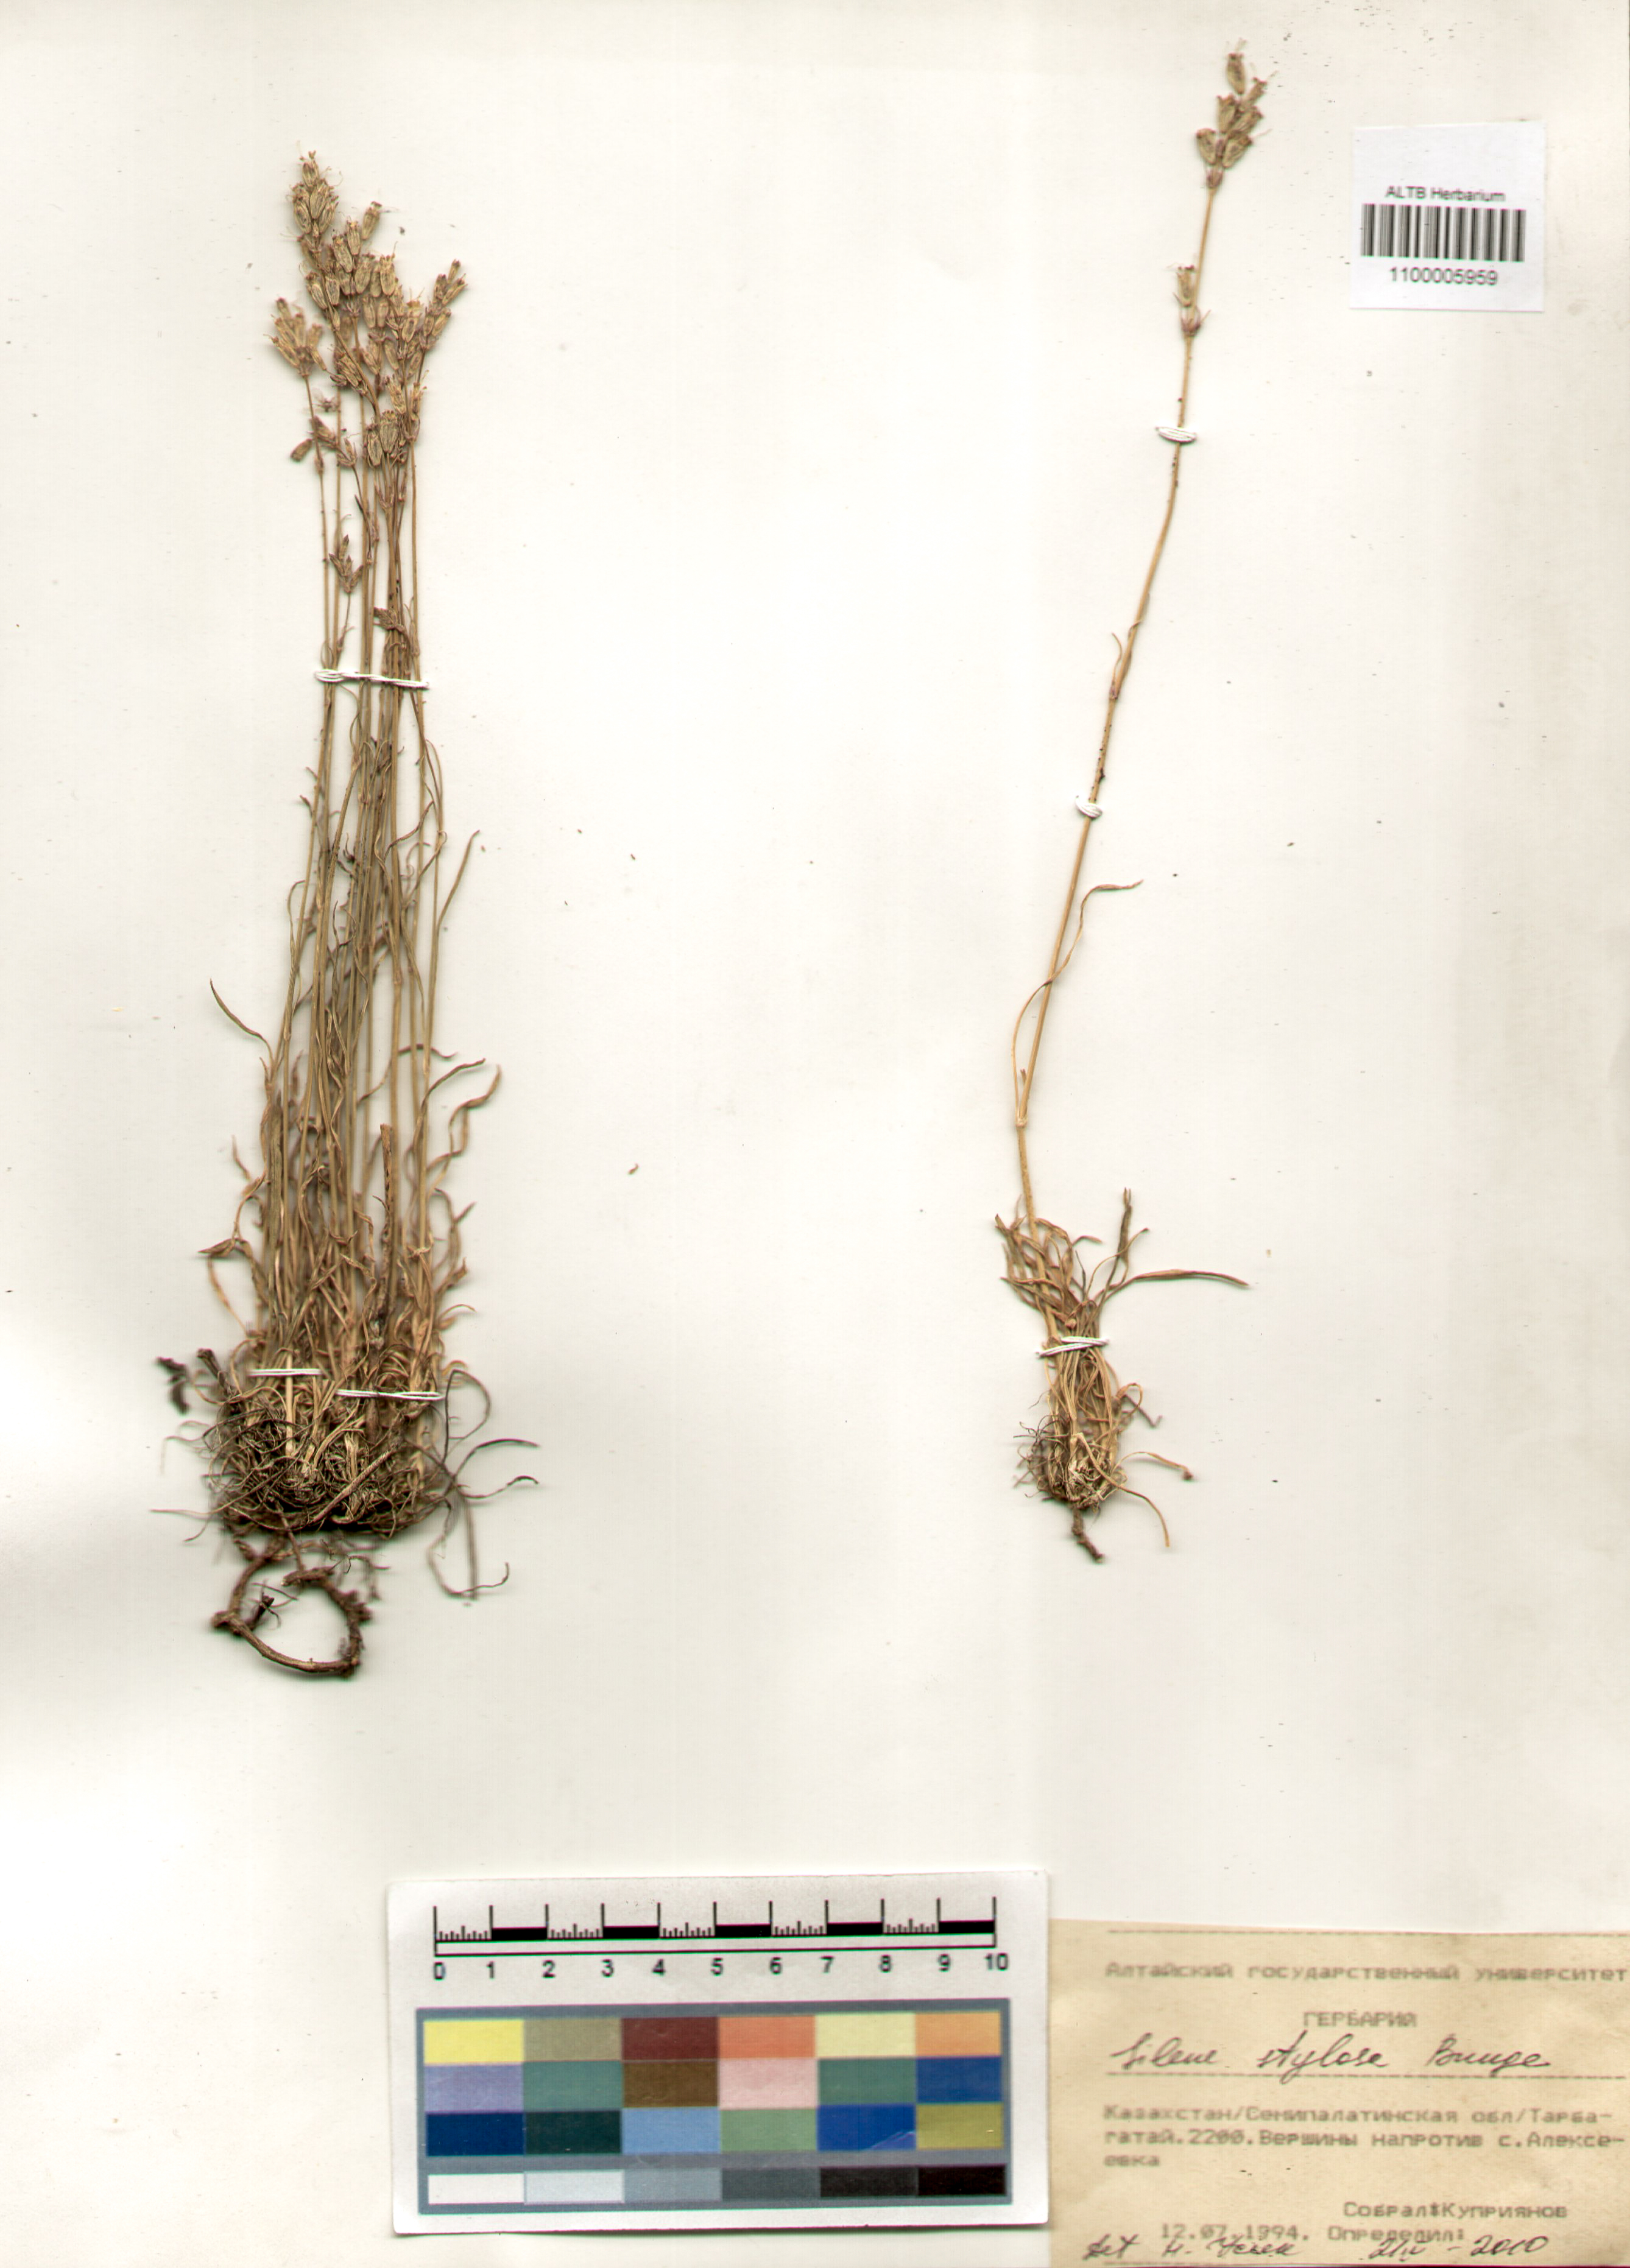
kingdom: Plantae
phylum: Tracheophyta
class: Magnoliopsida
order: Caryophyllales
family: Caryophyllaceae
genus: Silene
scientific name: Silene graminifolia
